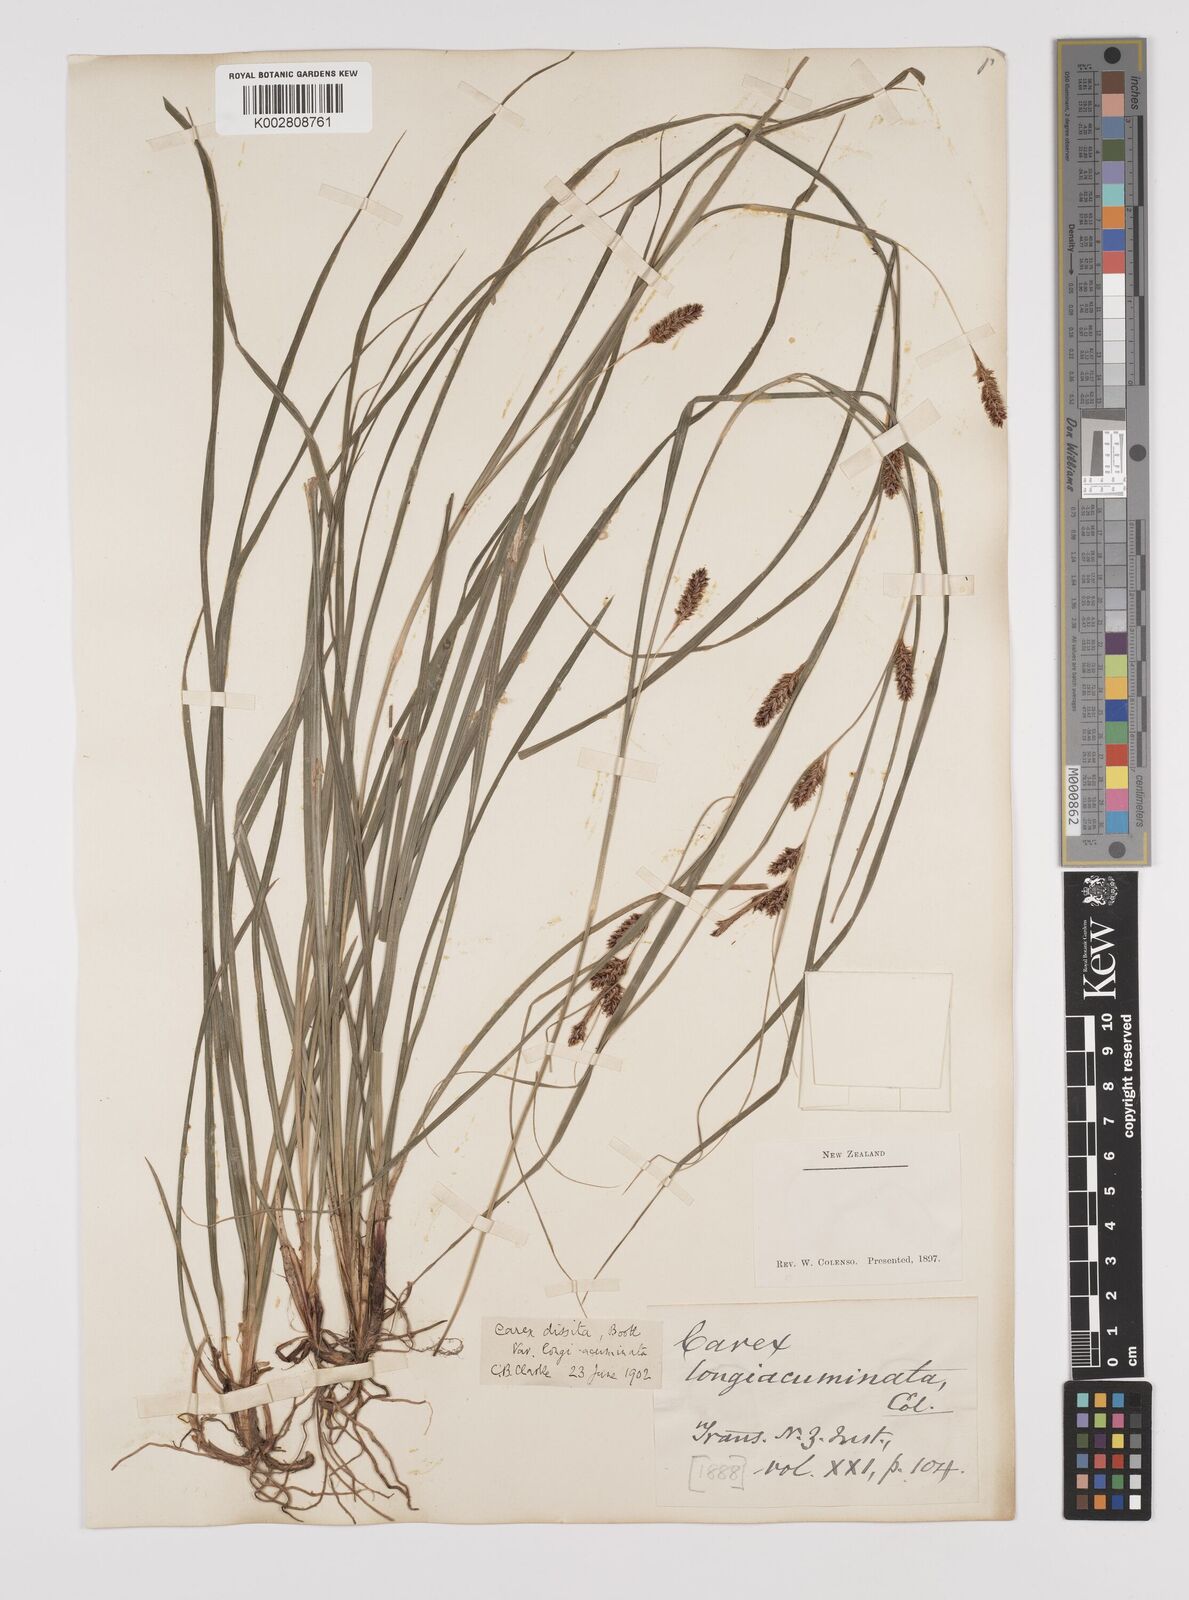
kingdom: Plantae
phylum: Tracheophyta
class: Liliopsida
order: Poales
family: Cyperaceae
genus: Carex
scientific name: Carex dissita
